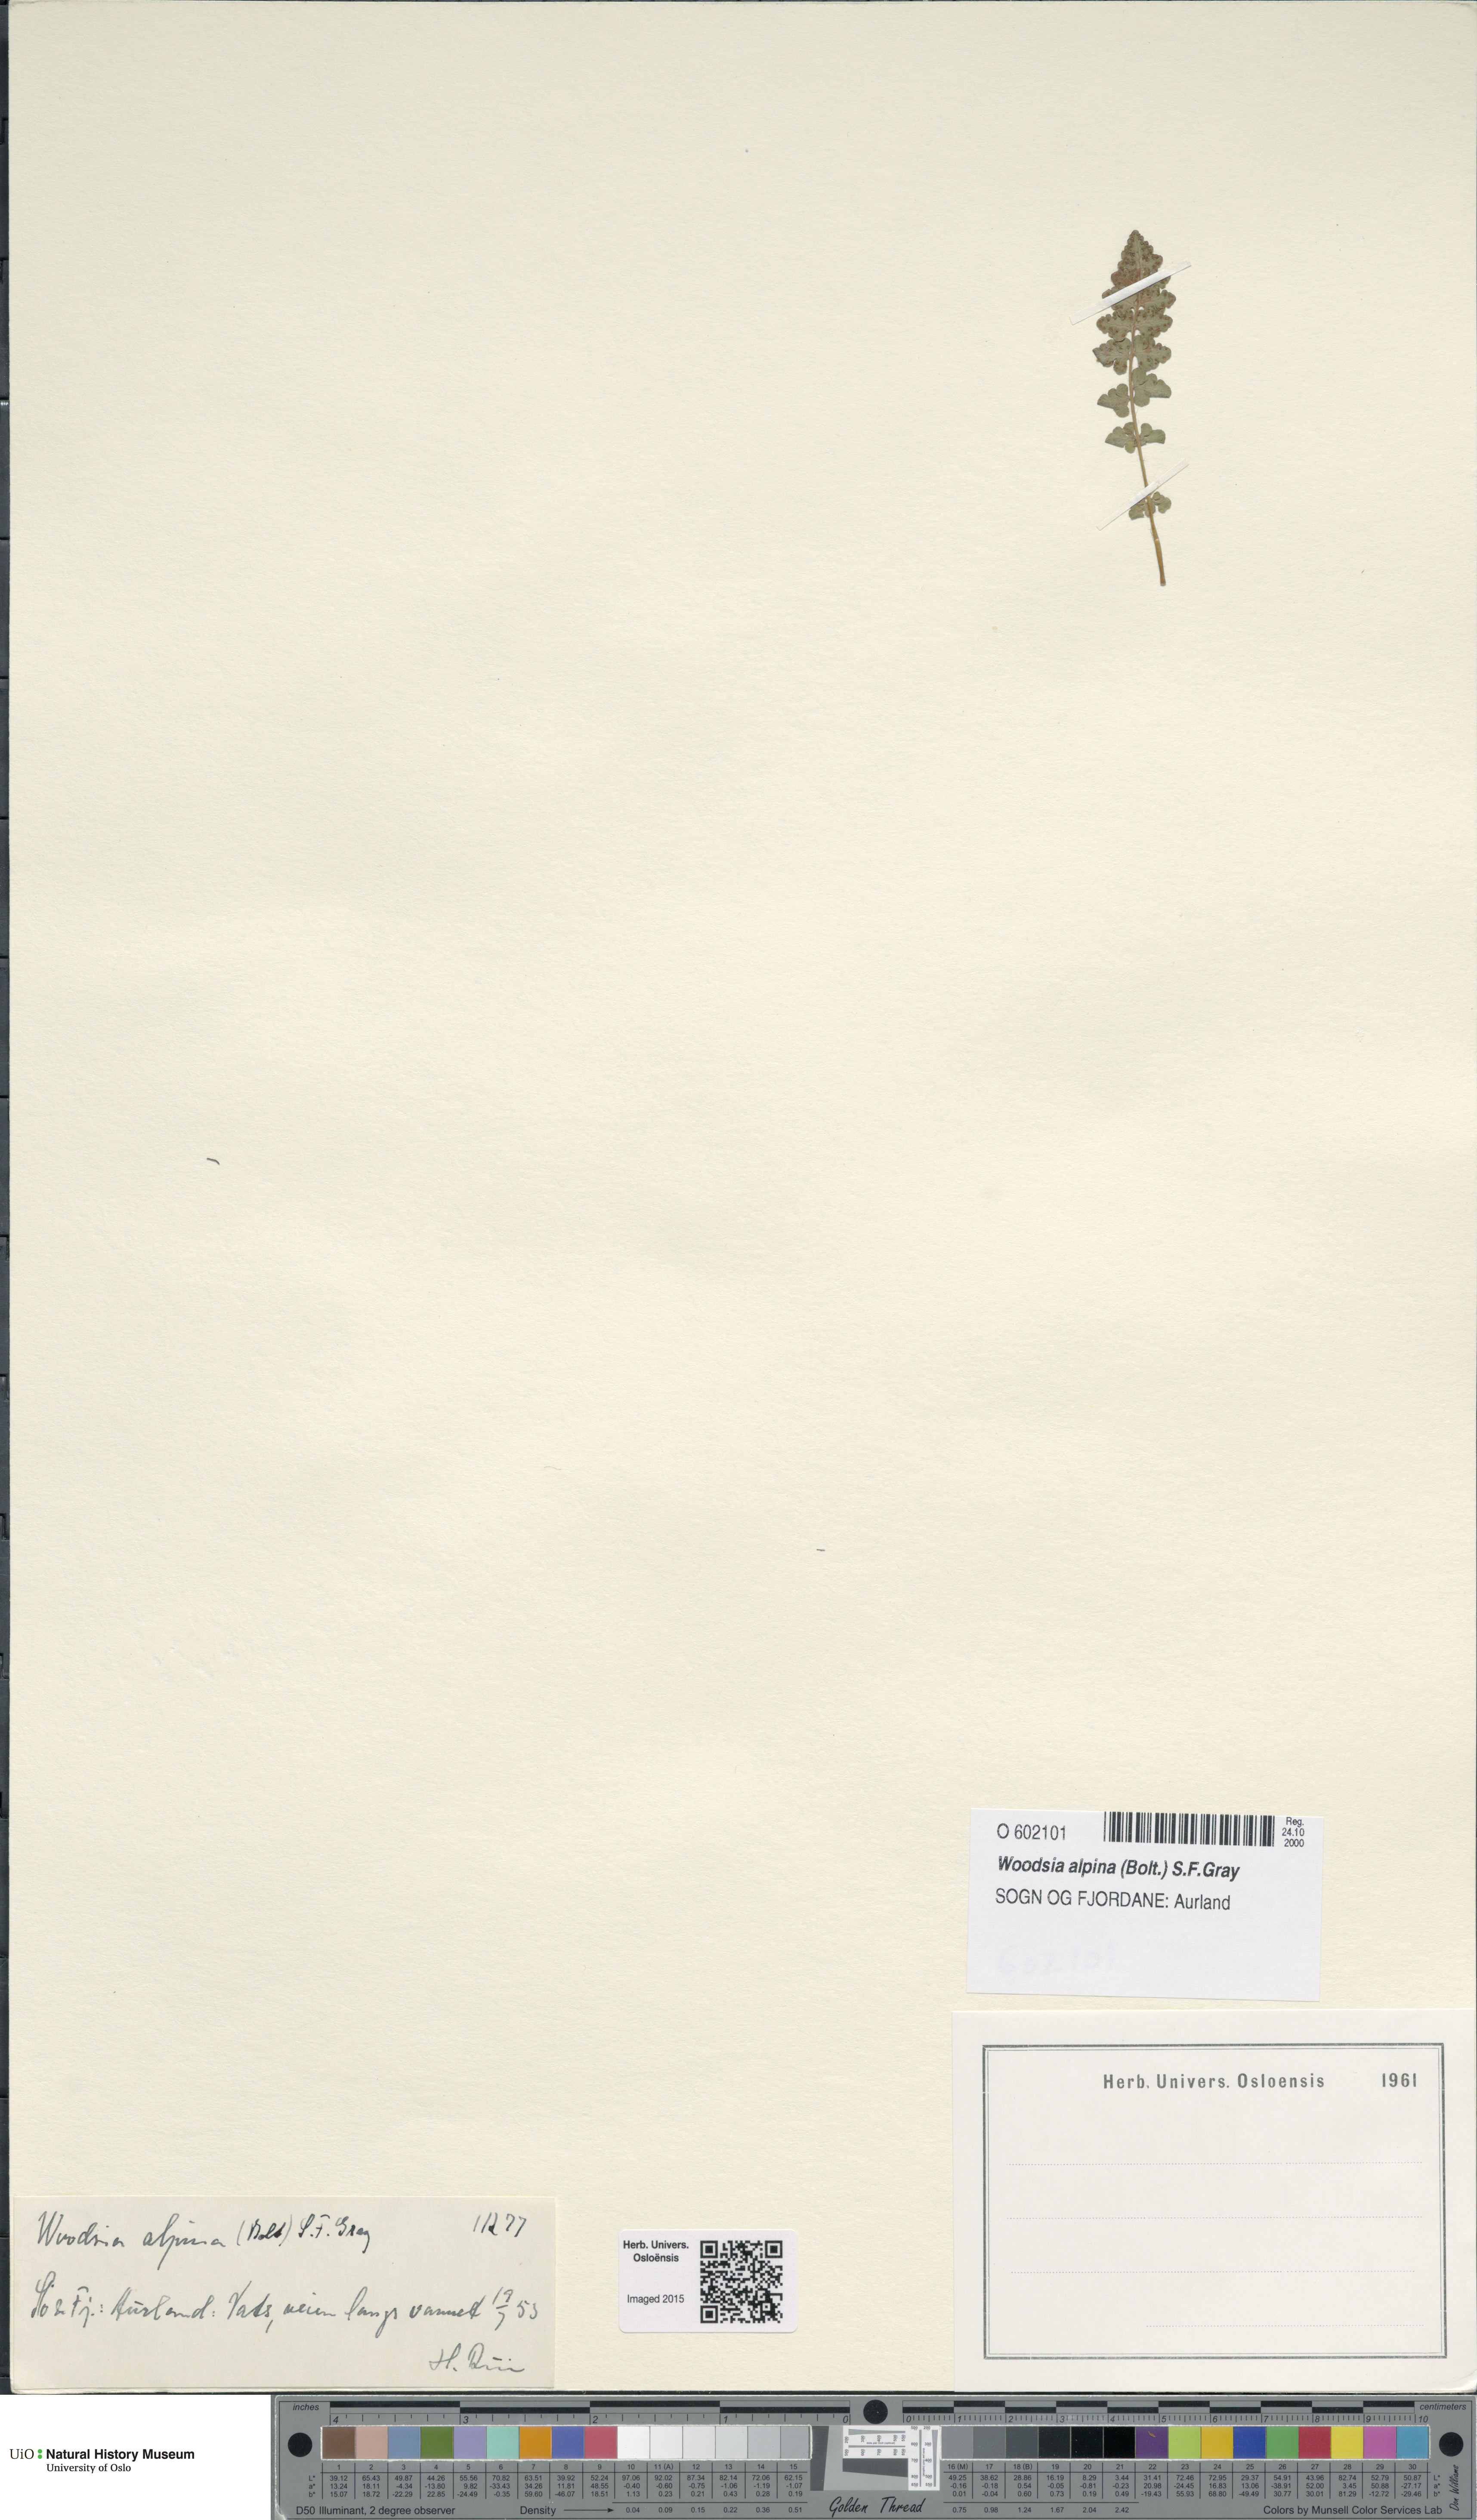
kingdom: Plantae
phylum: Tracheophyta
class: Polypodiopsida
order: Polypodiales
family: Woodsiaceae
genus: Woodsia
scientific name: Woodsia alpina
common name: Alpine woodsia
